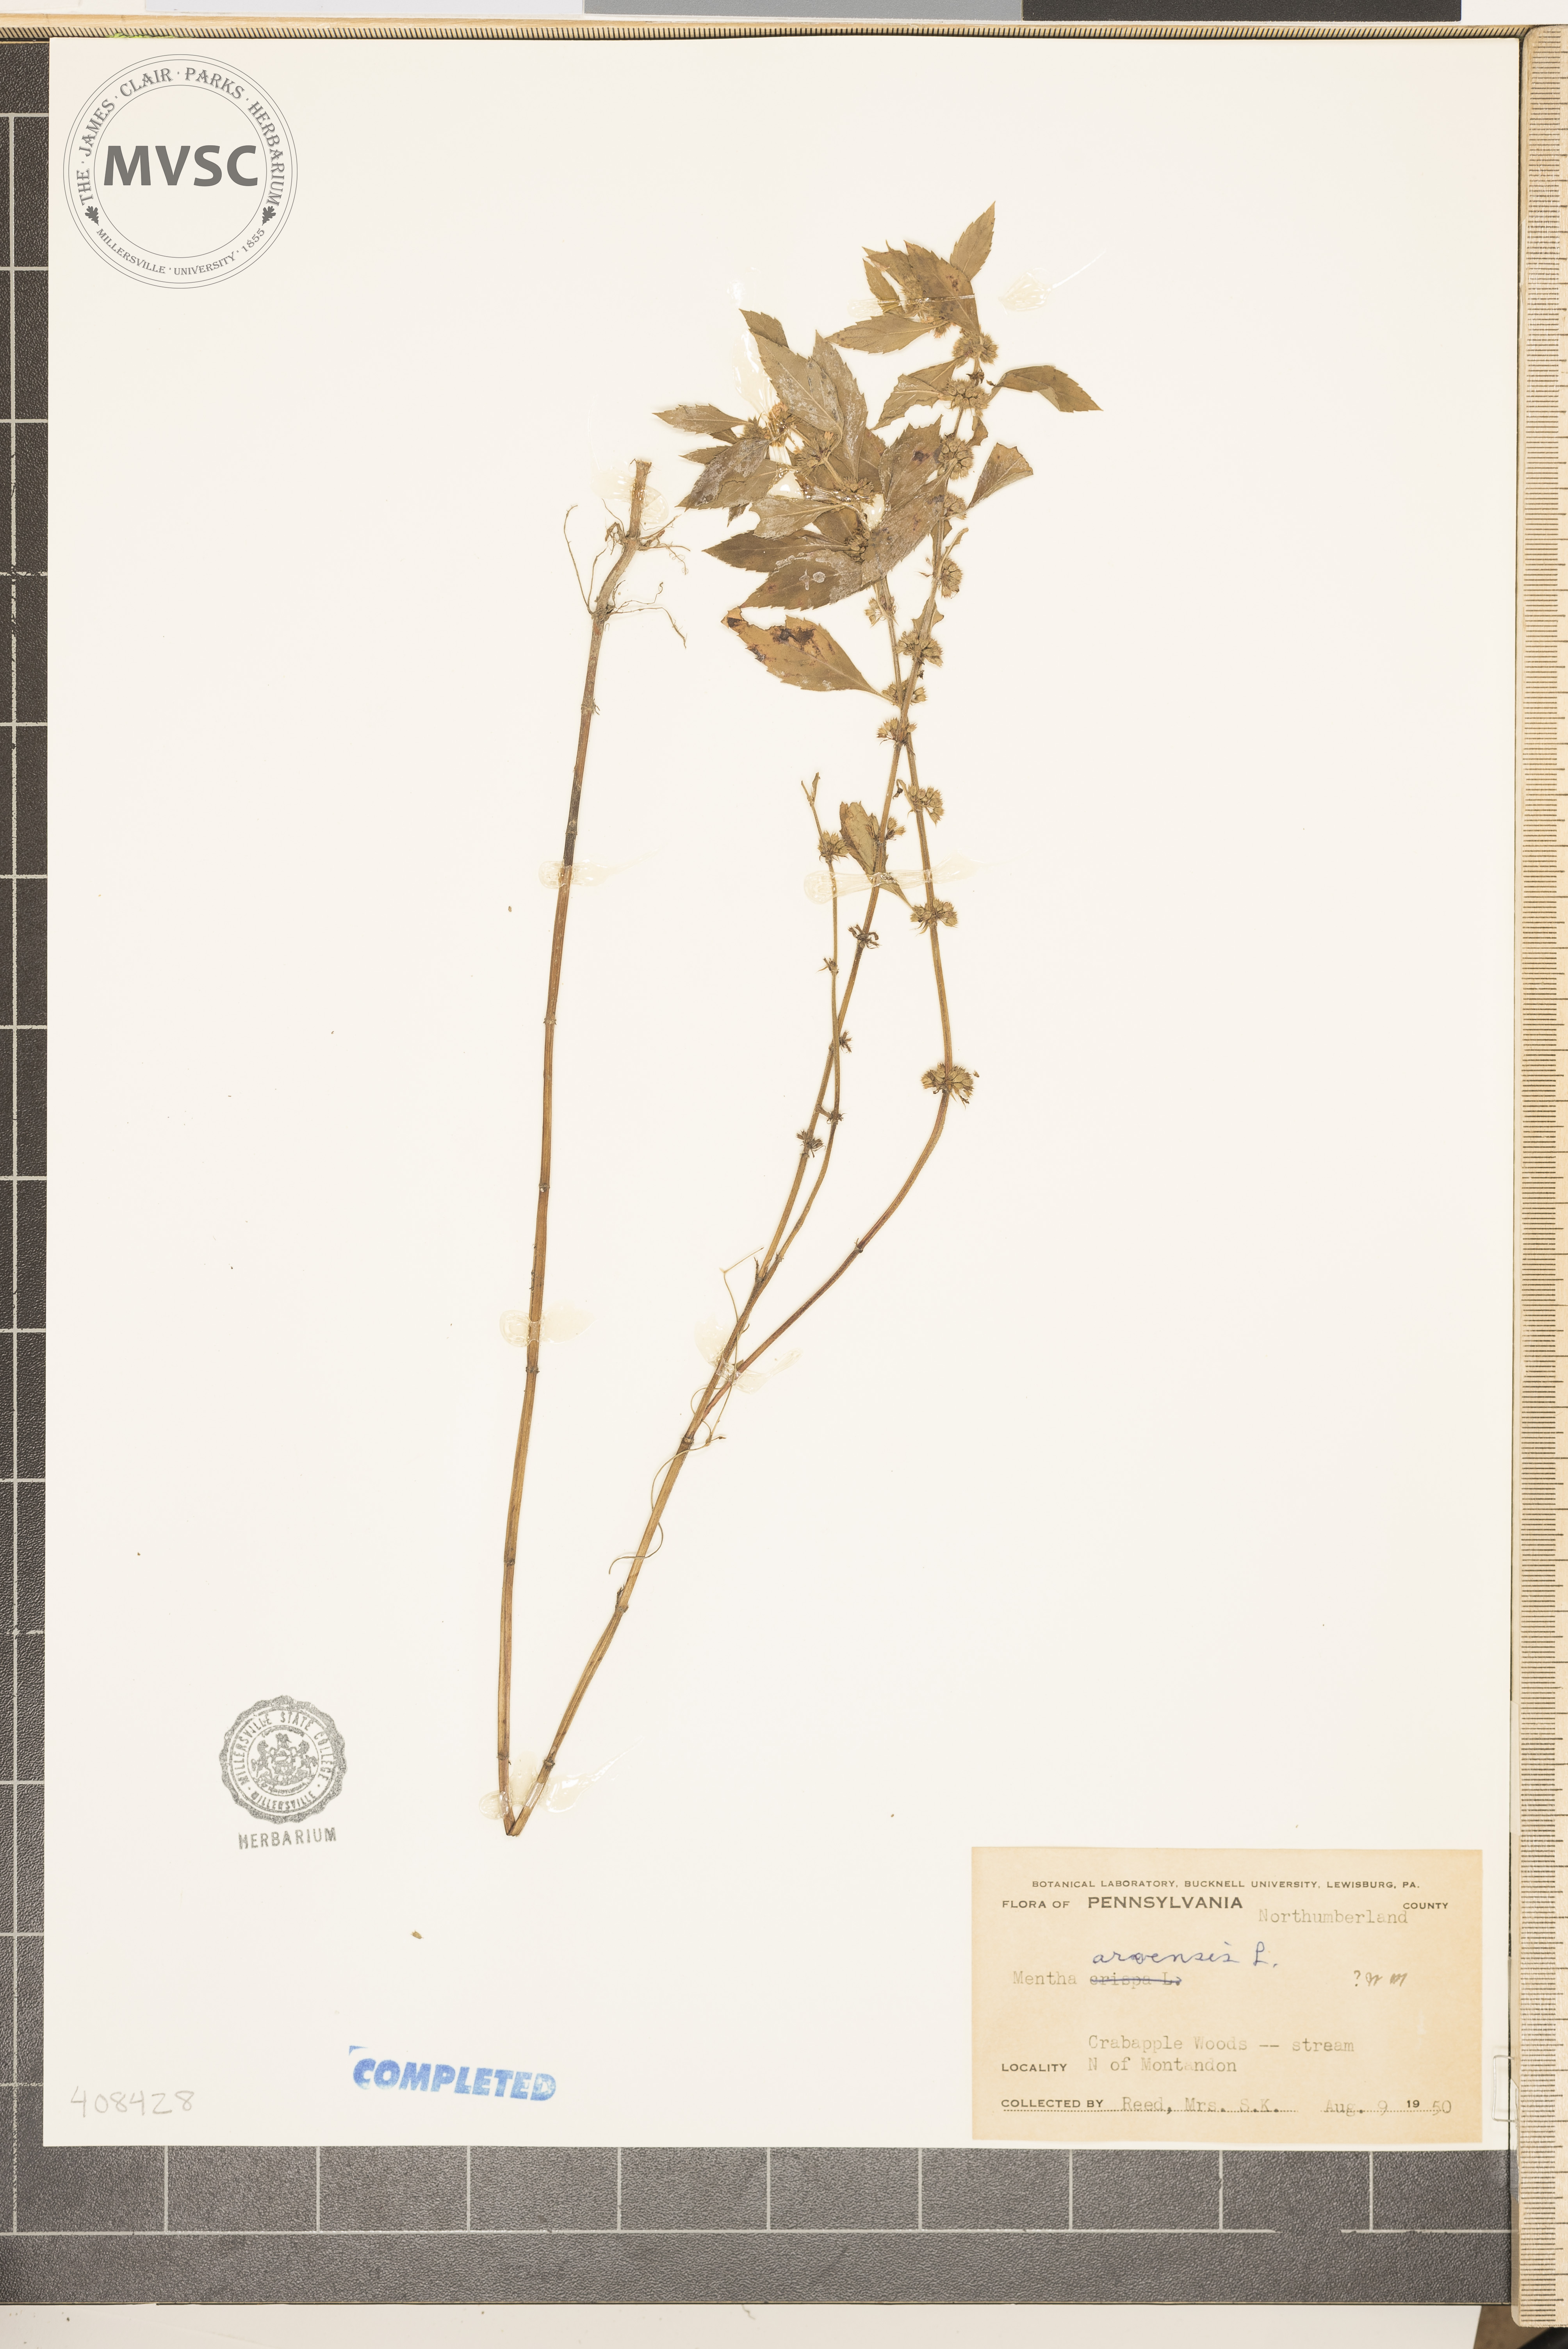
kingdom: Plantae
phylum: Tracheophyta
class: Magnoliopsida
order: Lamiales
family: Lamiaceae
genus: Mentha
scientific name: Mentha arvensis
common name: Corn mint
